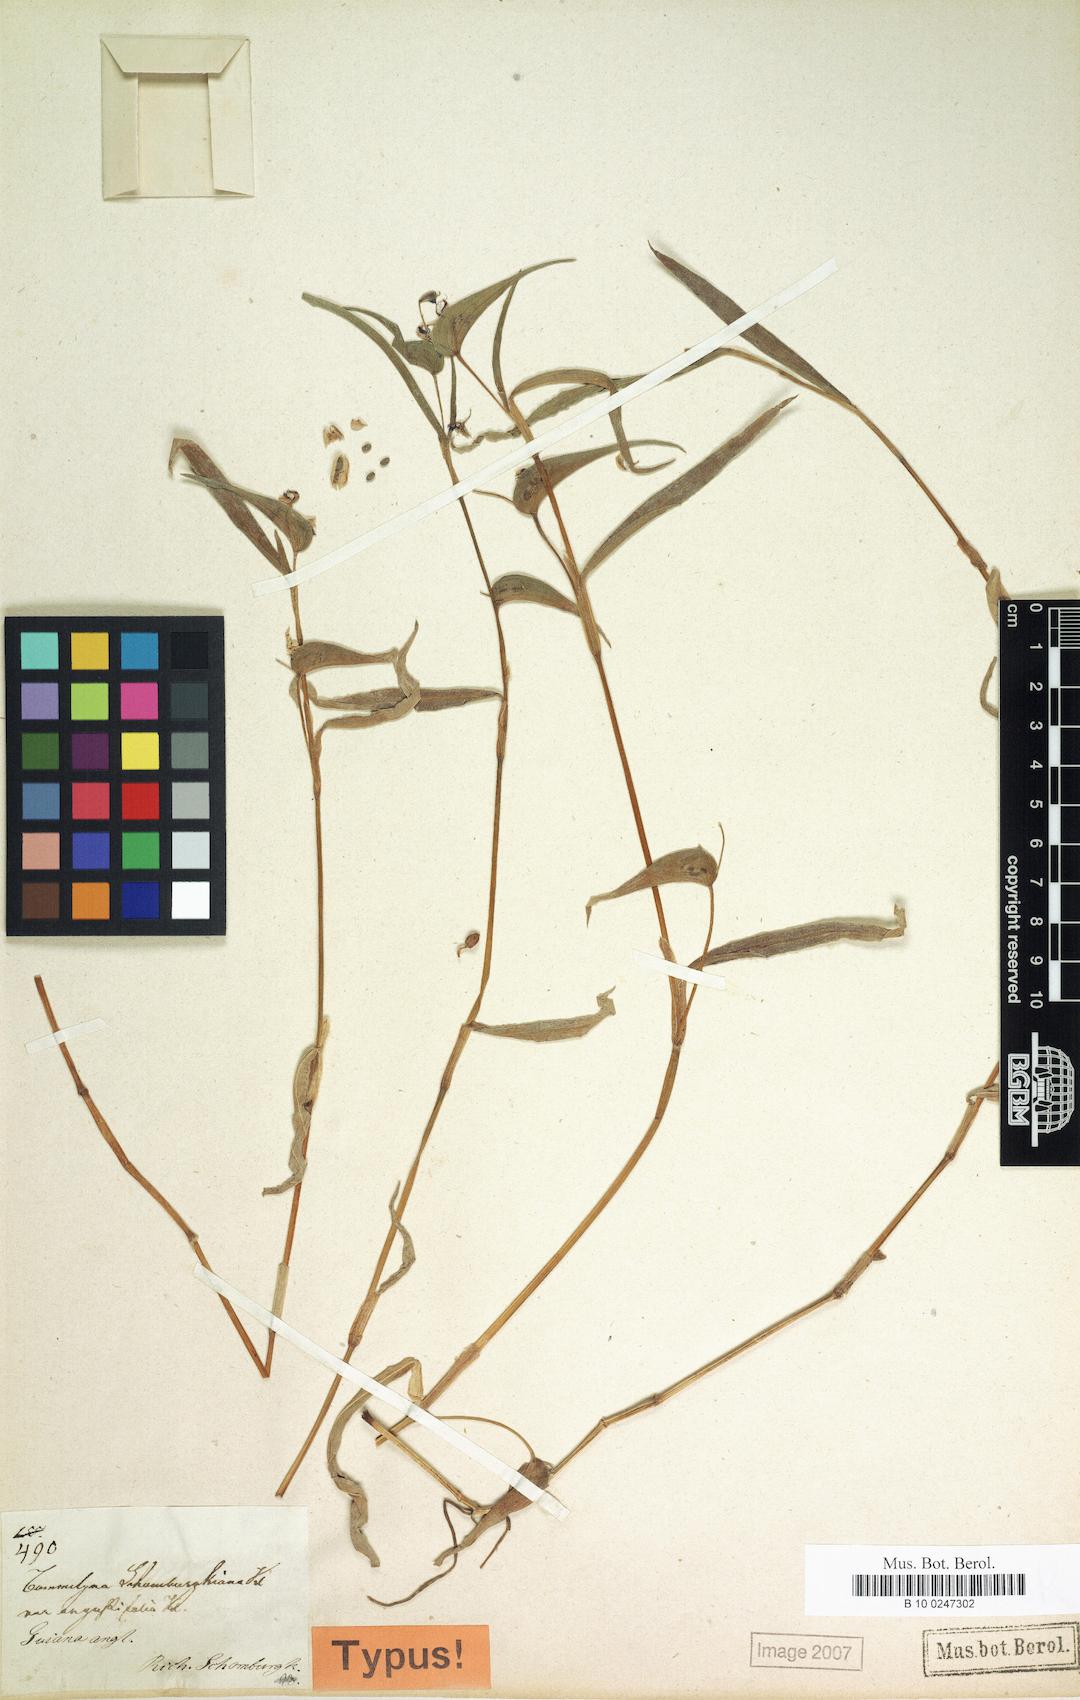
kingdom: Plantae
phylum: Tracheophyta
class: Liliopsida
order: Commelinales
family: Commelinaceae
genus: Commelina
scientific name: Commelina schomburgkiana
